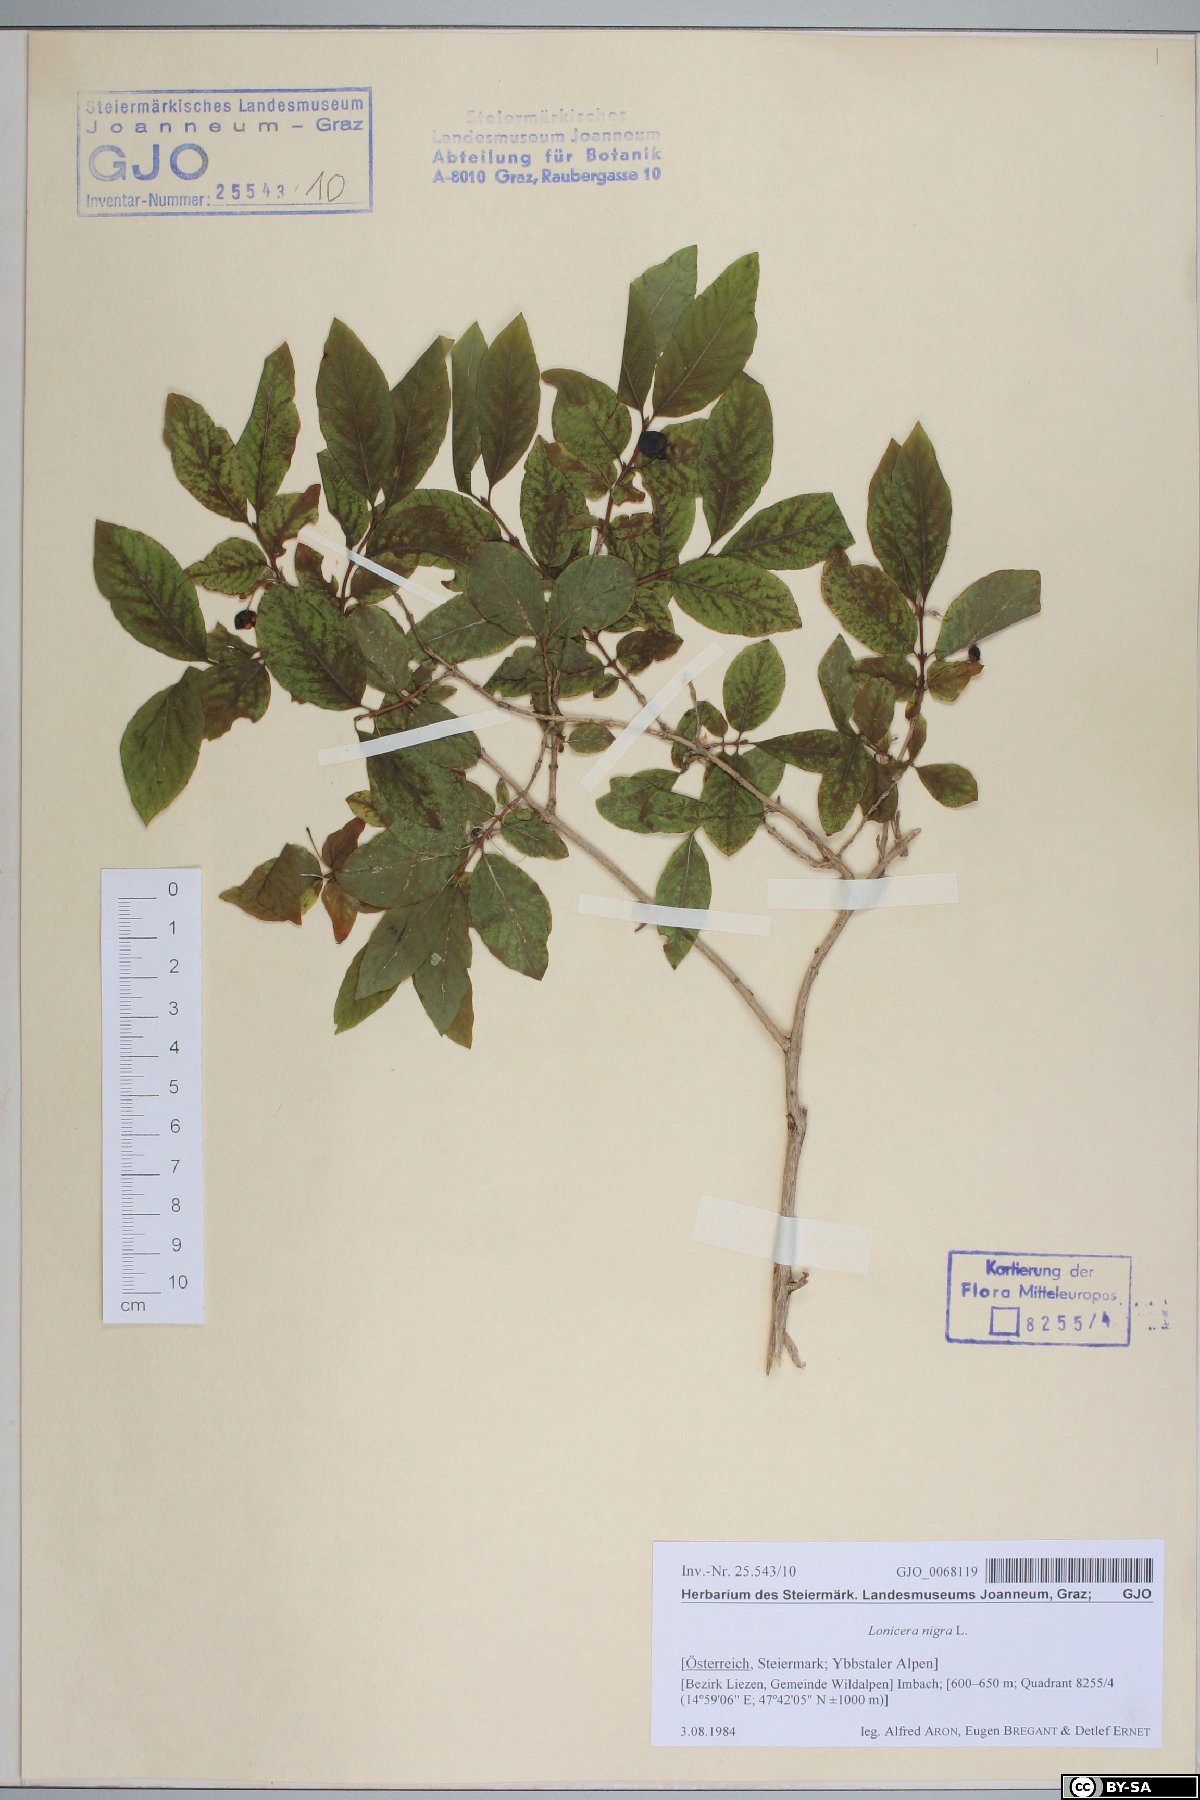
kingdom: Plantae
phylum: Tracheophyta
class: Magnoliopsida
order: Dipsacales
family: Caprifoliaceae
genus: Lonicera
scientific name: Lonicera nigra
